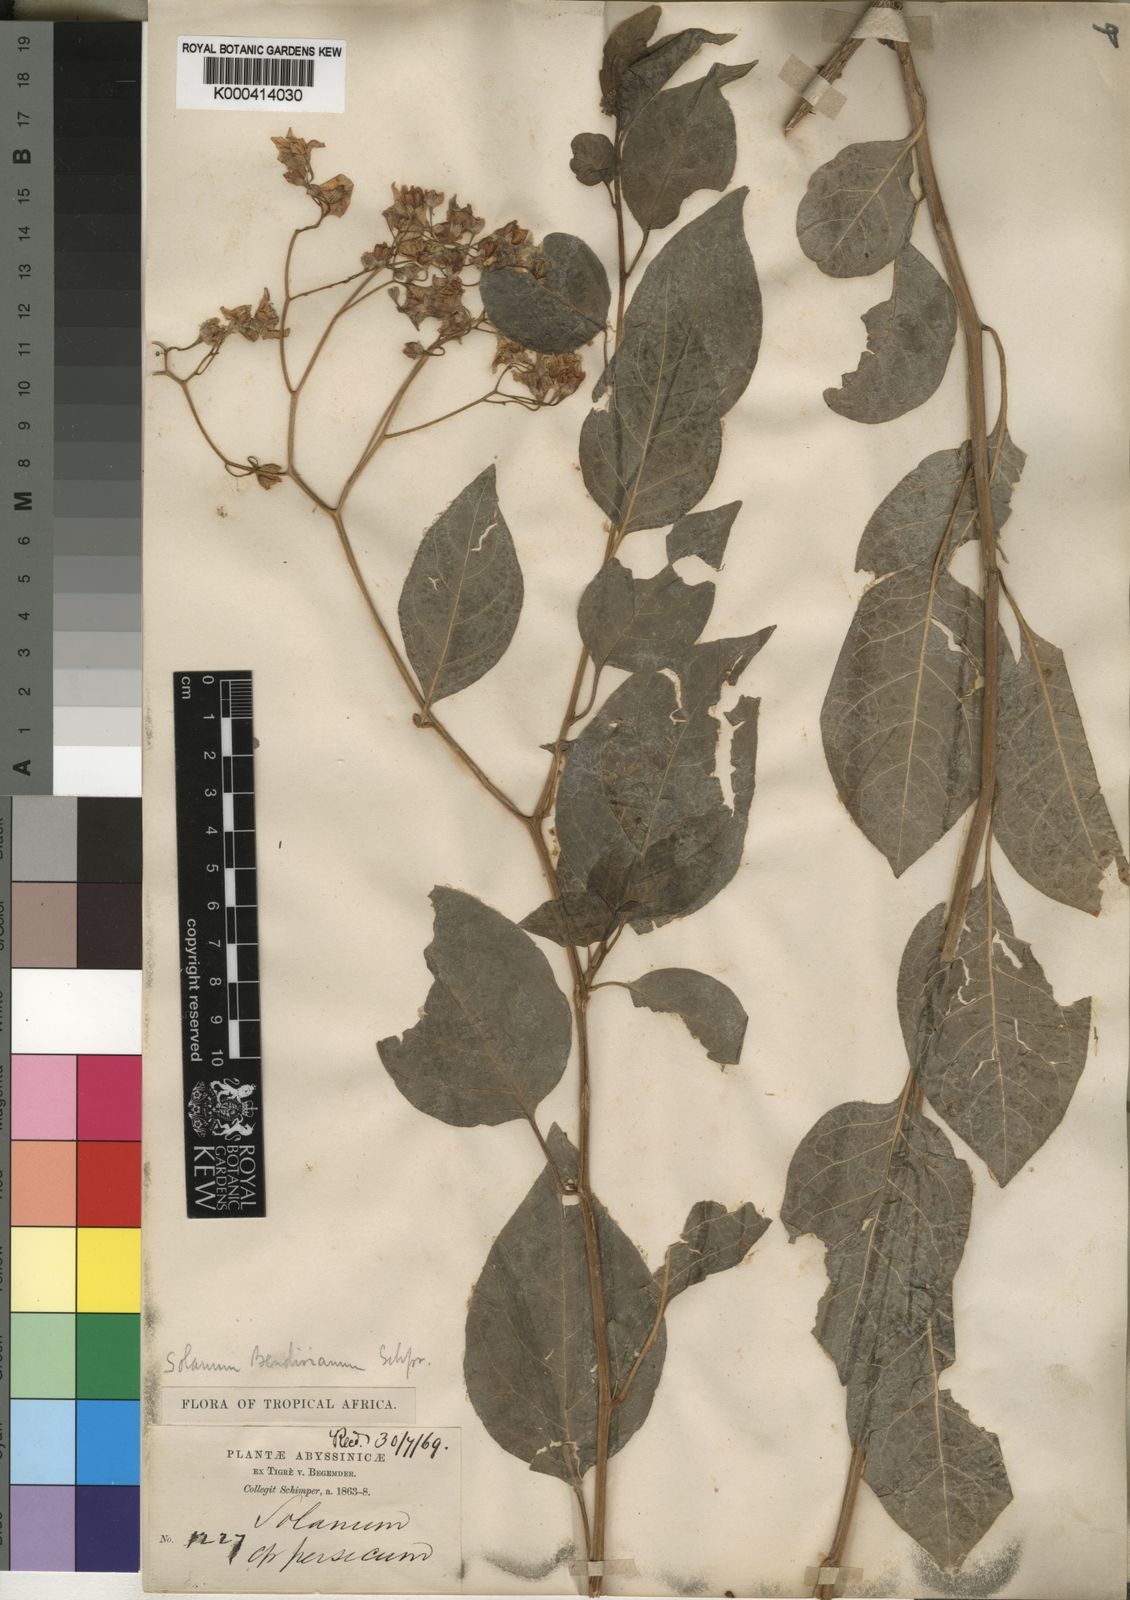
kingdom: Plantae
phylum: Tracheophyta
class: Magnoliopsida
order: Solanales
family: Solanaceae
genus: Solanum
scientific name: Solanum runsoriense
